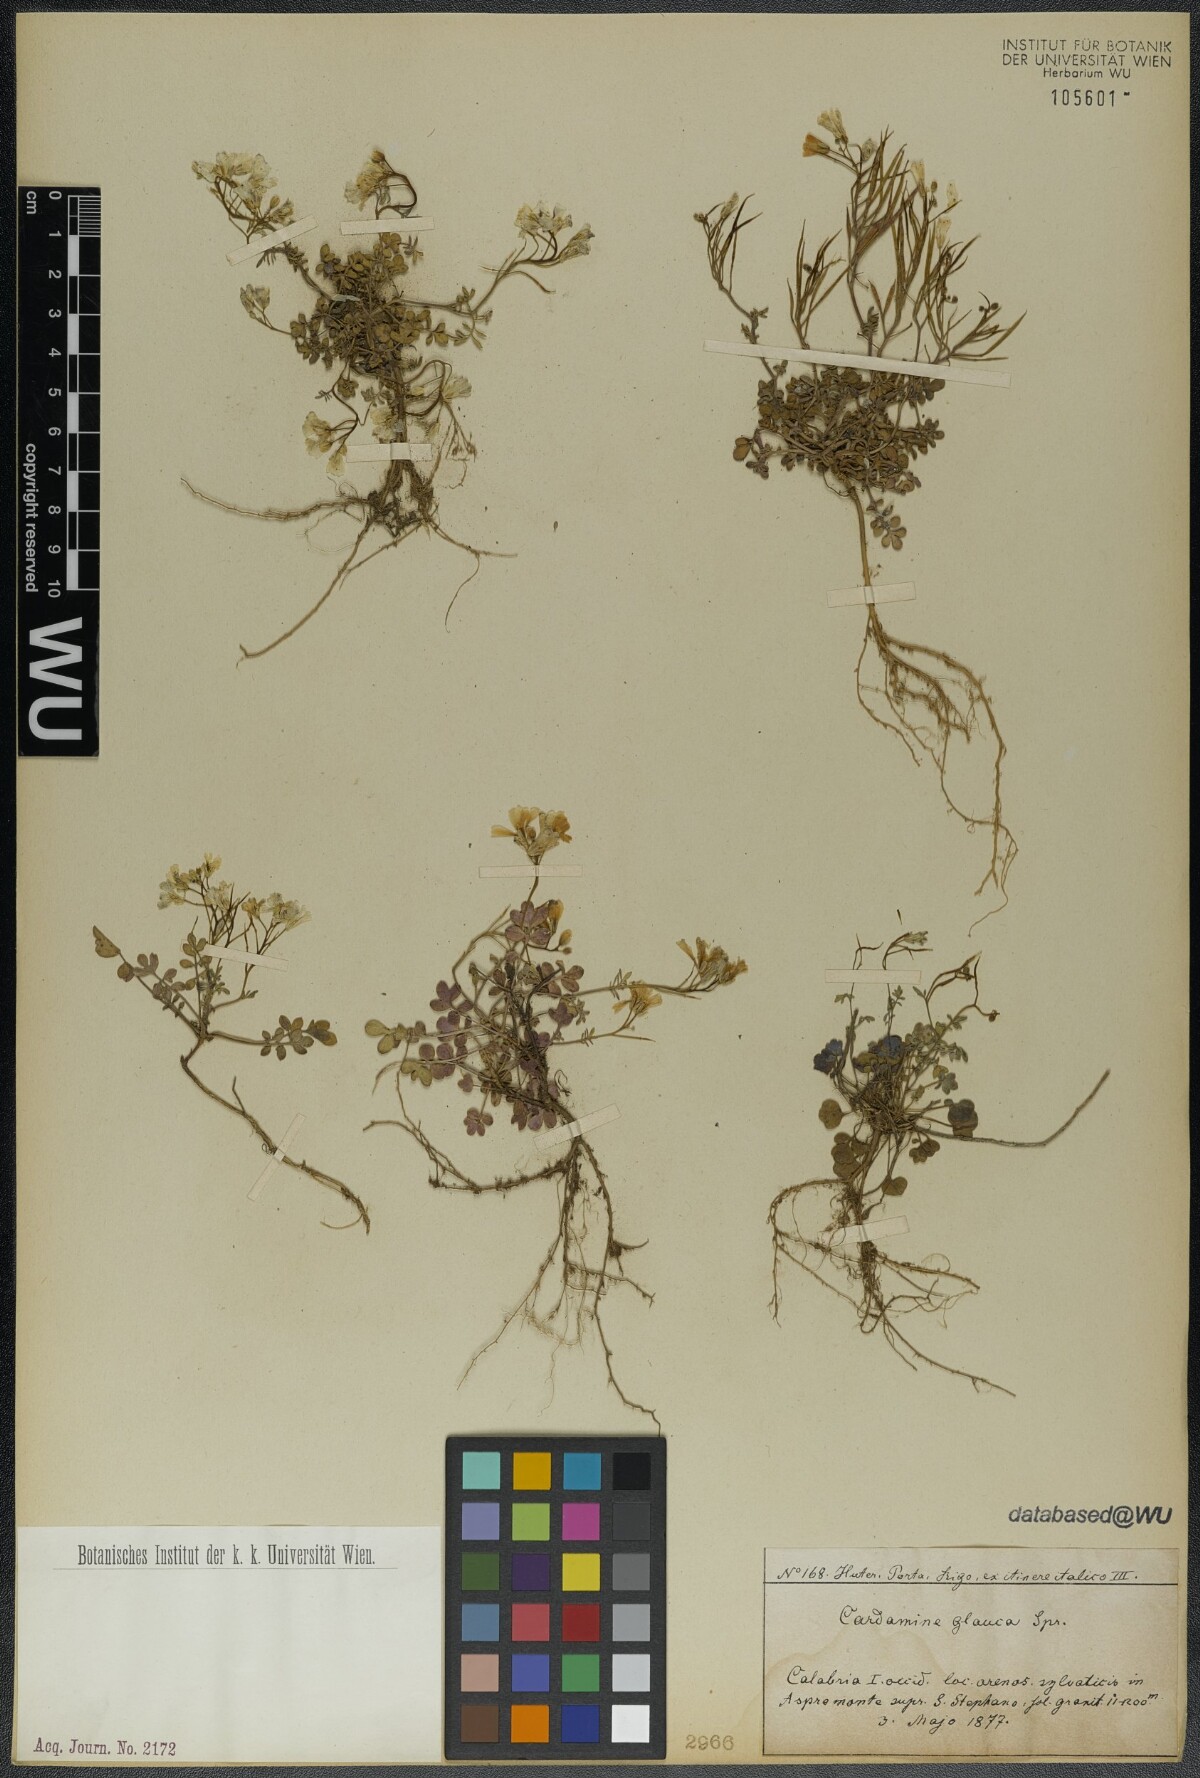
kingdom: Plantae
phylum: Tracheophyta
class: Magnoliopsida
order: Brassicales
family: Brassicaceae
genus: Cardamine
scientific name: Cardamine glauca
